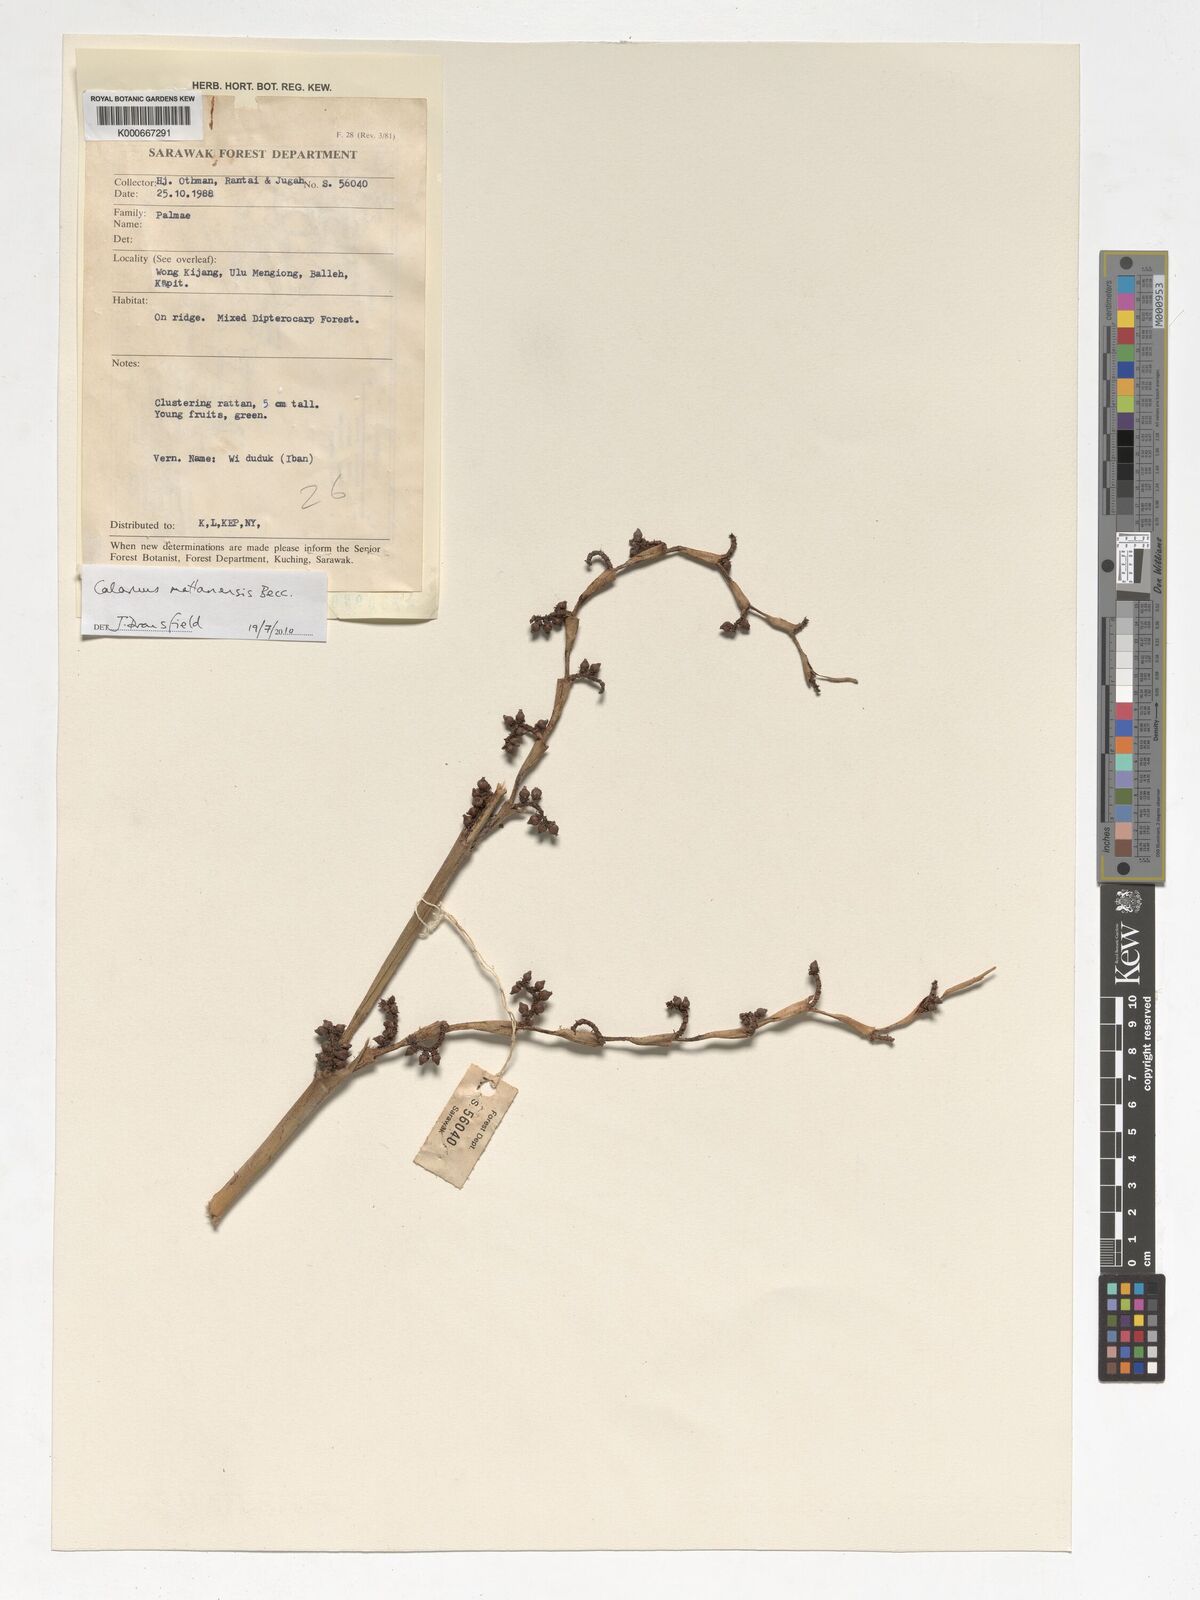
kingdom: Plantae
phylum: Tracheophyta
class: Liliopsida
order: Arecales
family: Arecaceae
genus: Calamus
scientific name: Calamus plicatus
